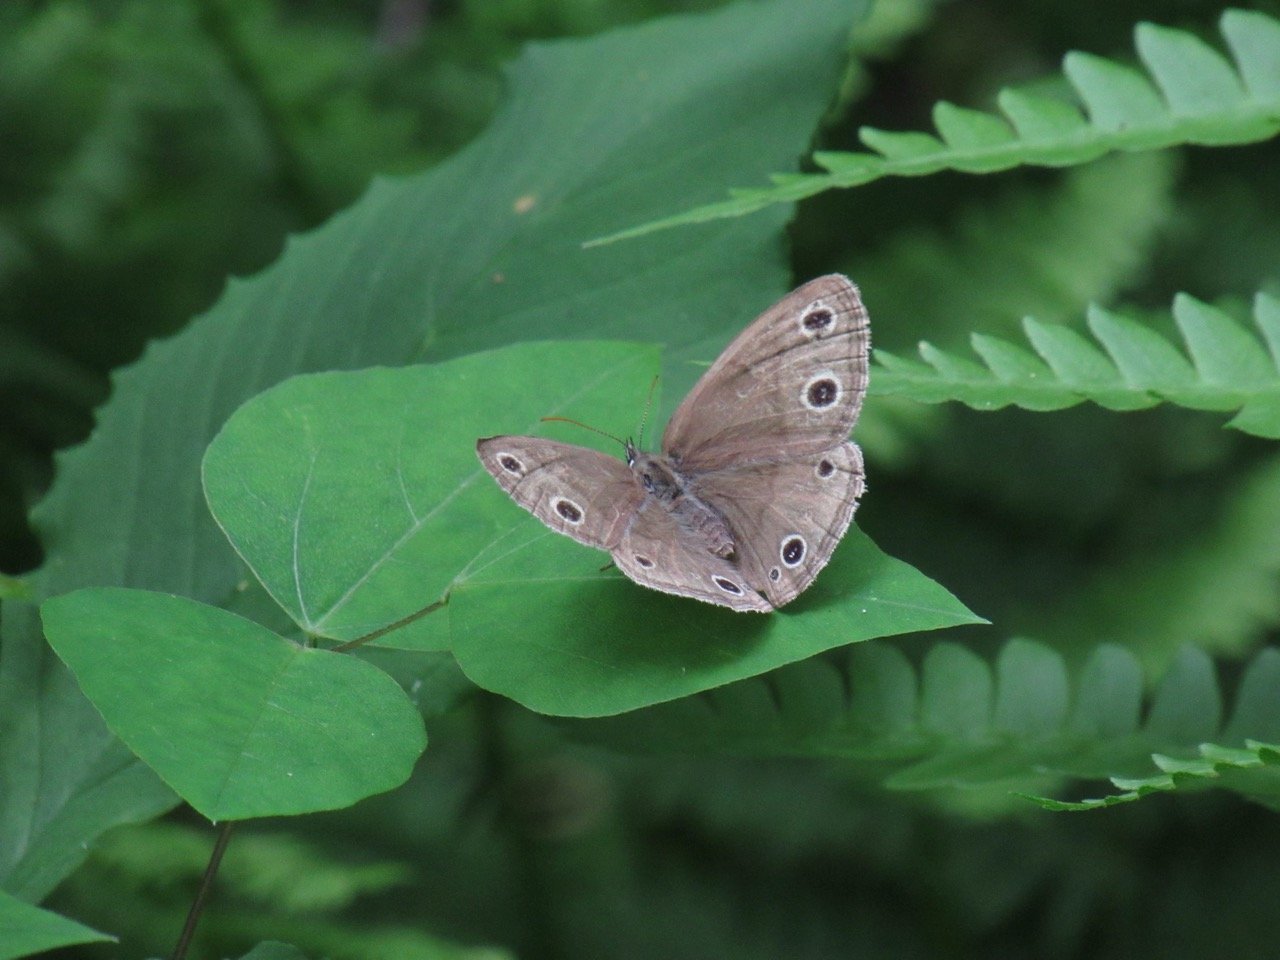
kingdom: Animalia
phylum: Arthropoda
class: Insecta
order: Lepidoptera
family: Nymphalidae
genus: Euptychia
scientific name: Euptychia cymela
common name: Little Wood Satyr
